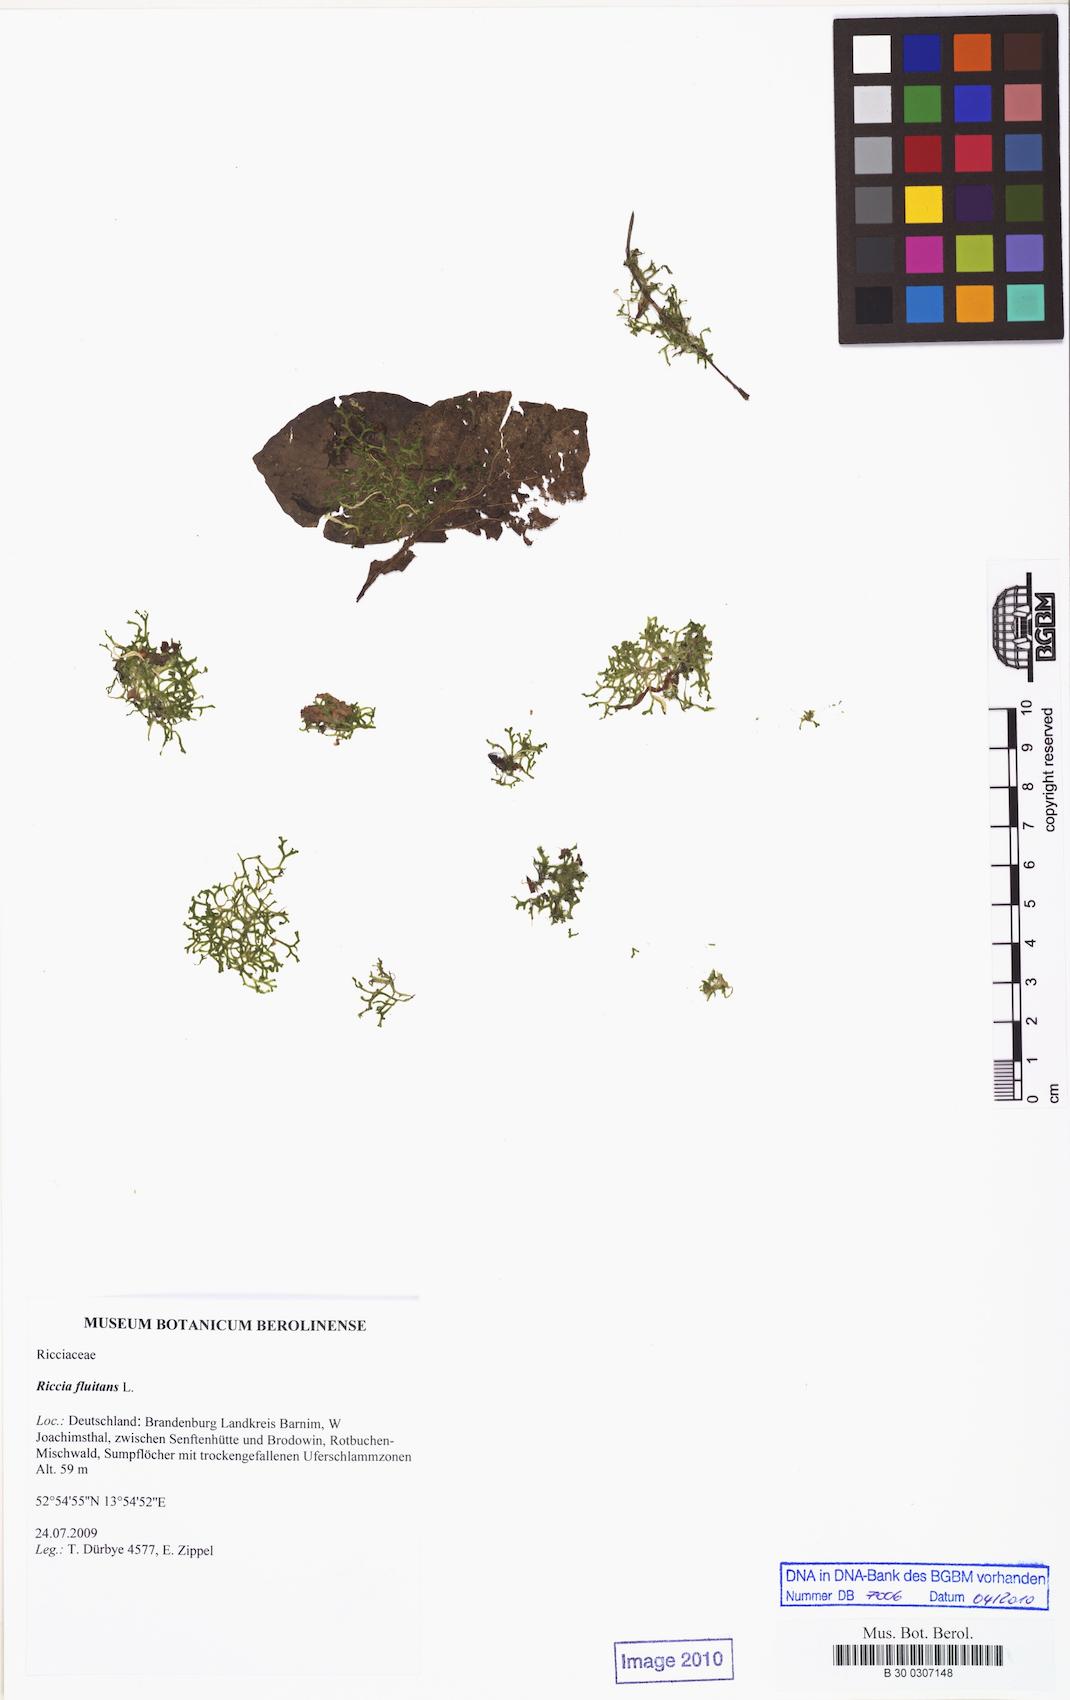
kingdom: Plantae
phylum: Marchantiophyta
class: Marchantiopsida
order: Marchantiales
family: Ricciaceae
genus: Riccia
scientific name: Riccia fluitans
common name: Floating crystalwort
